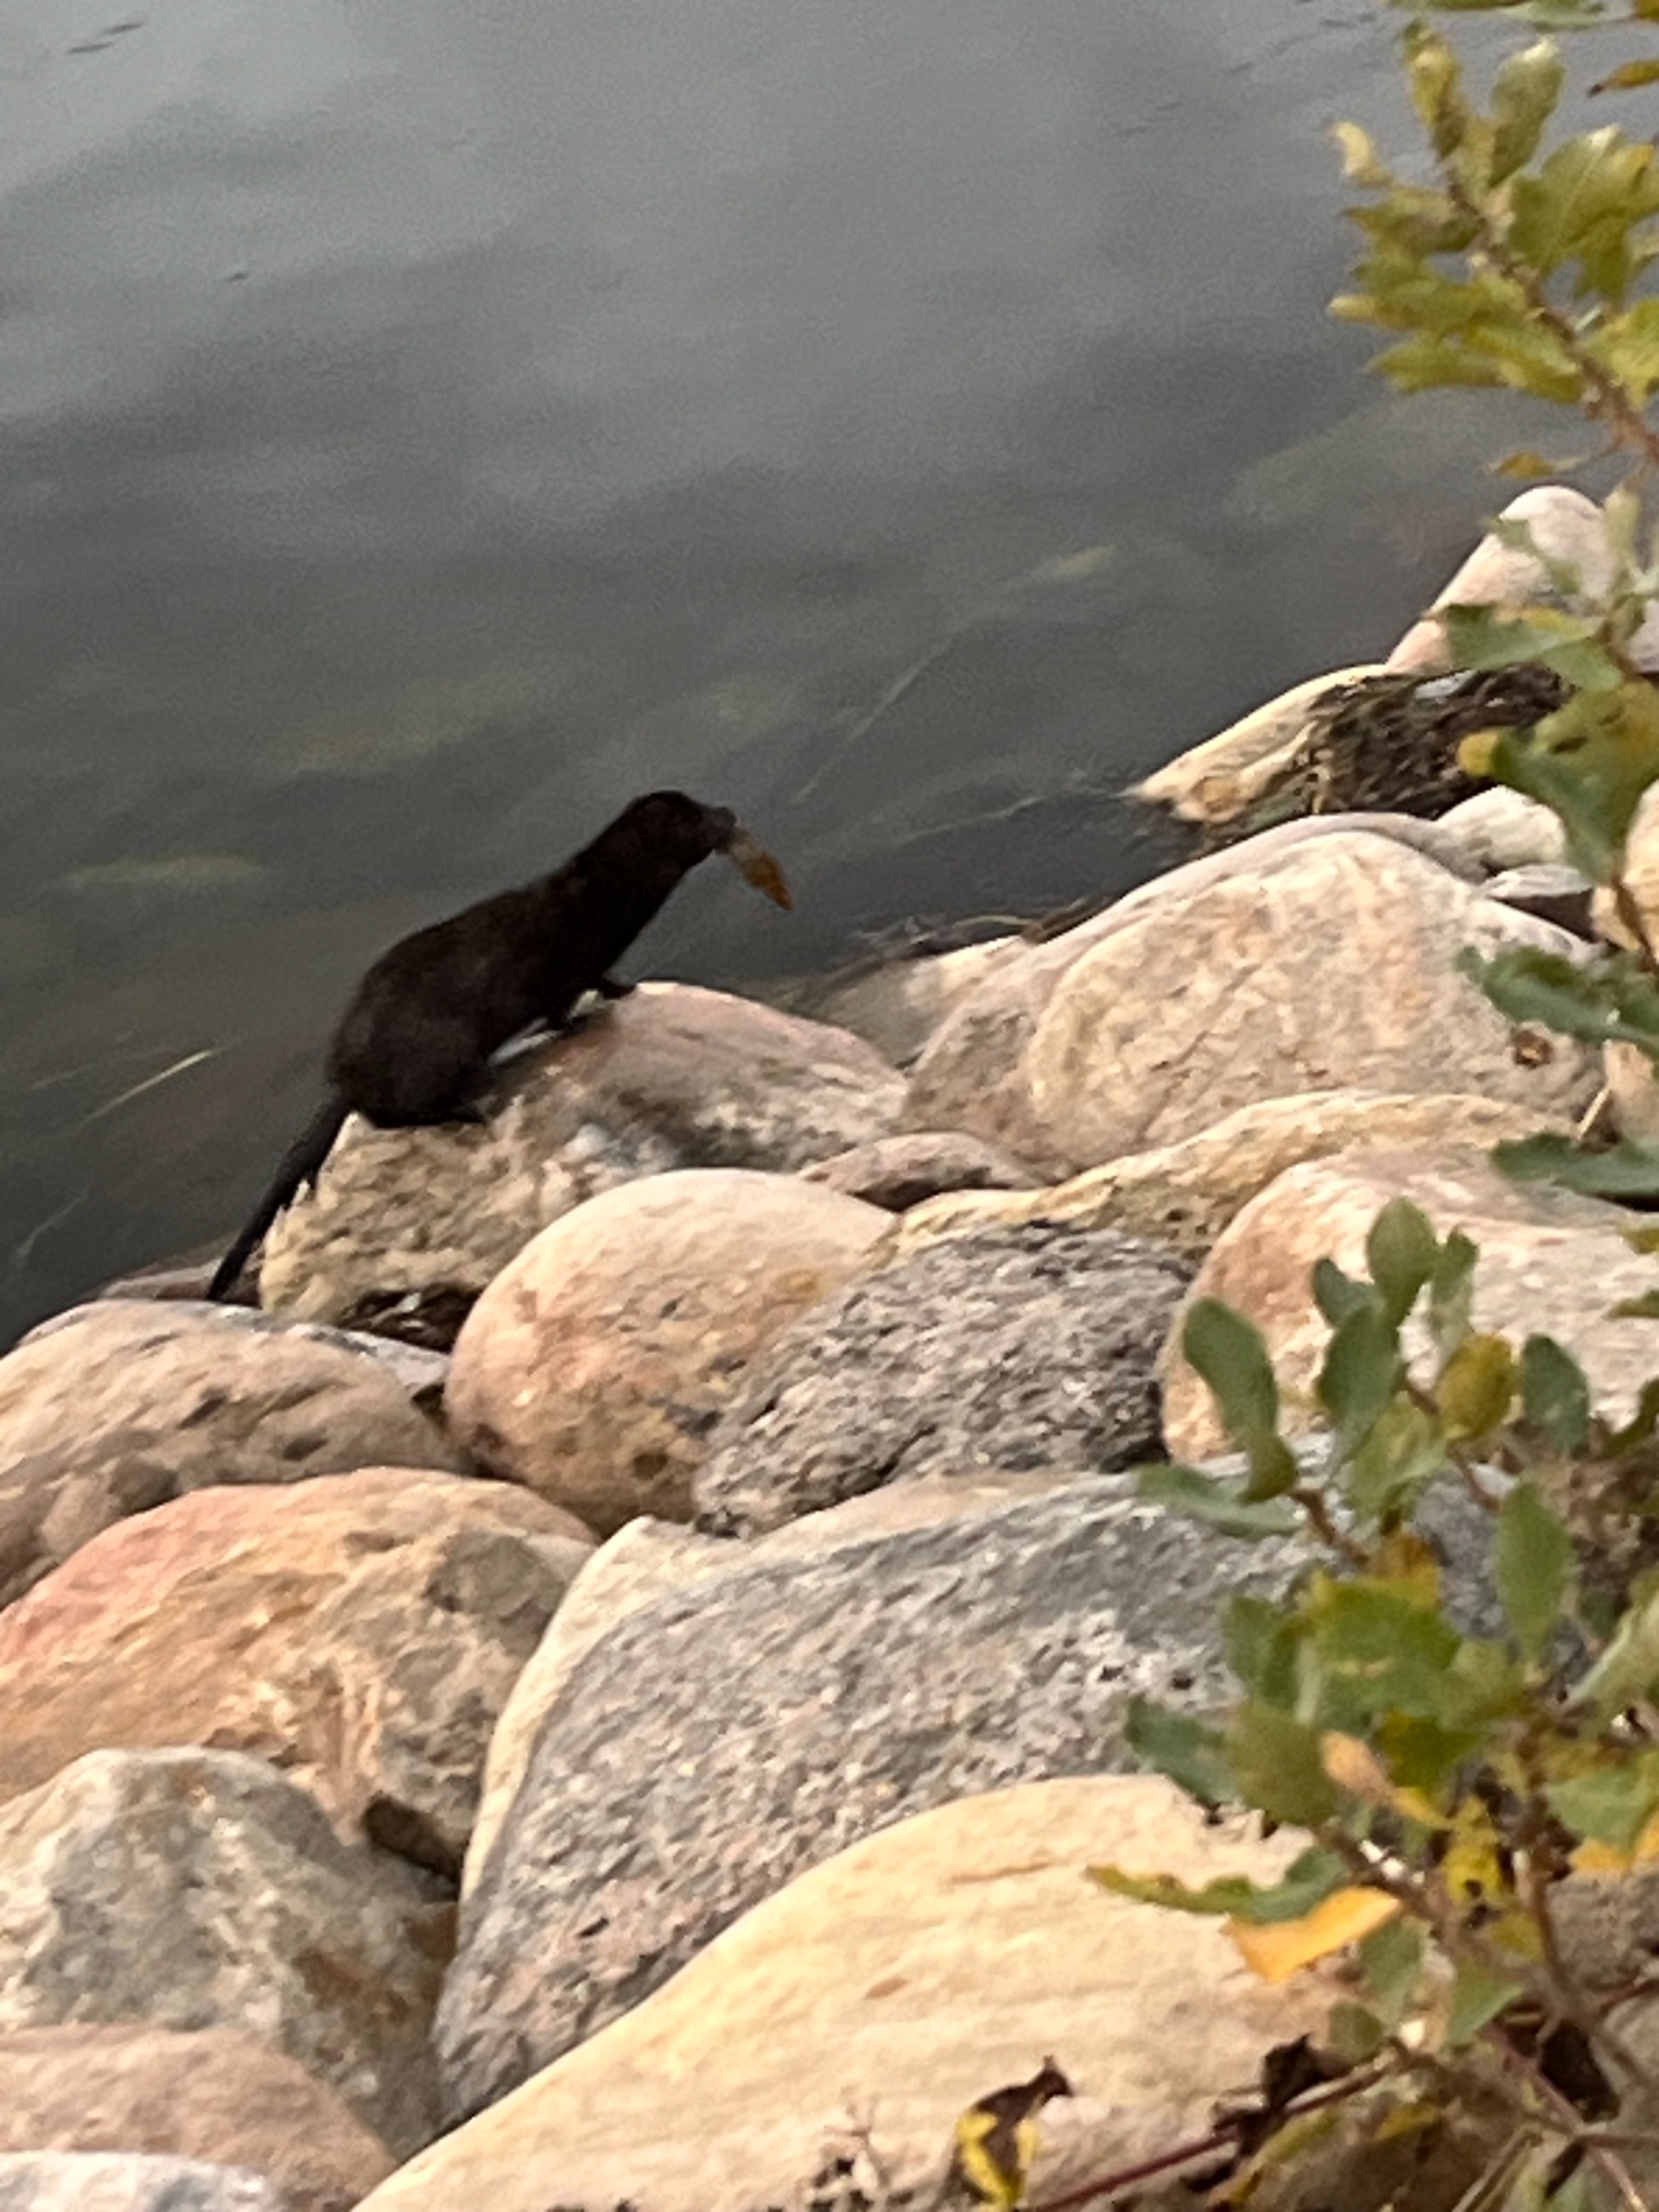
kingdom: Animalia
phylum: Chordata
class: Mammalia
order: Carnivora
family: Mustelidae
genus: Mustela
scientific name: Mustela vison
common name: Mink
